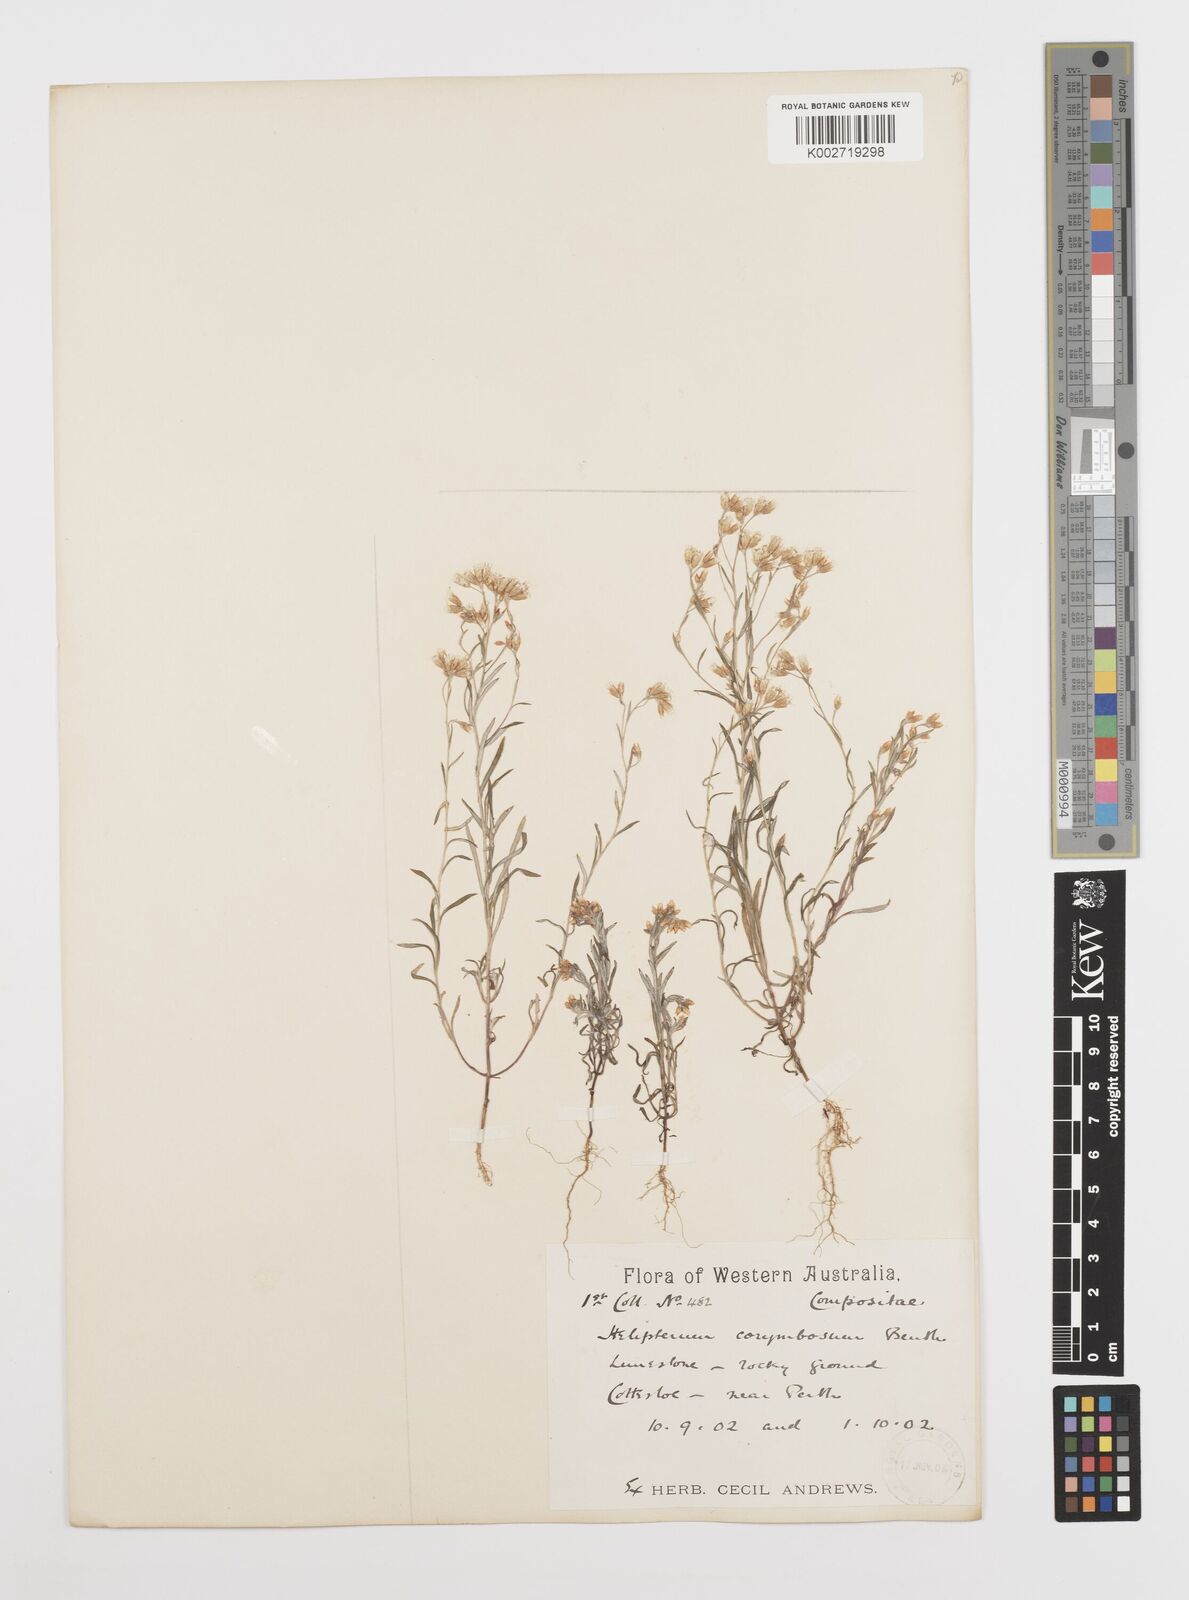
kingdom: Plantae
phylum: Tracheophyta
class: Magnoliopsida
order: Asterales
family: Asteraceae
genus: Rhodanthe
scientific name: Rhodanthe corymbosa
